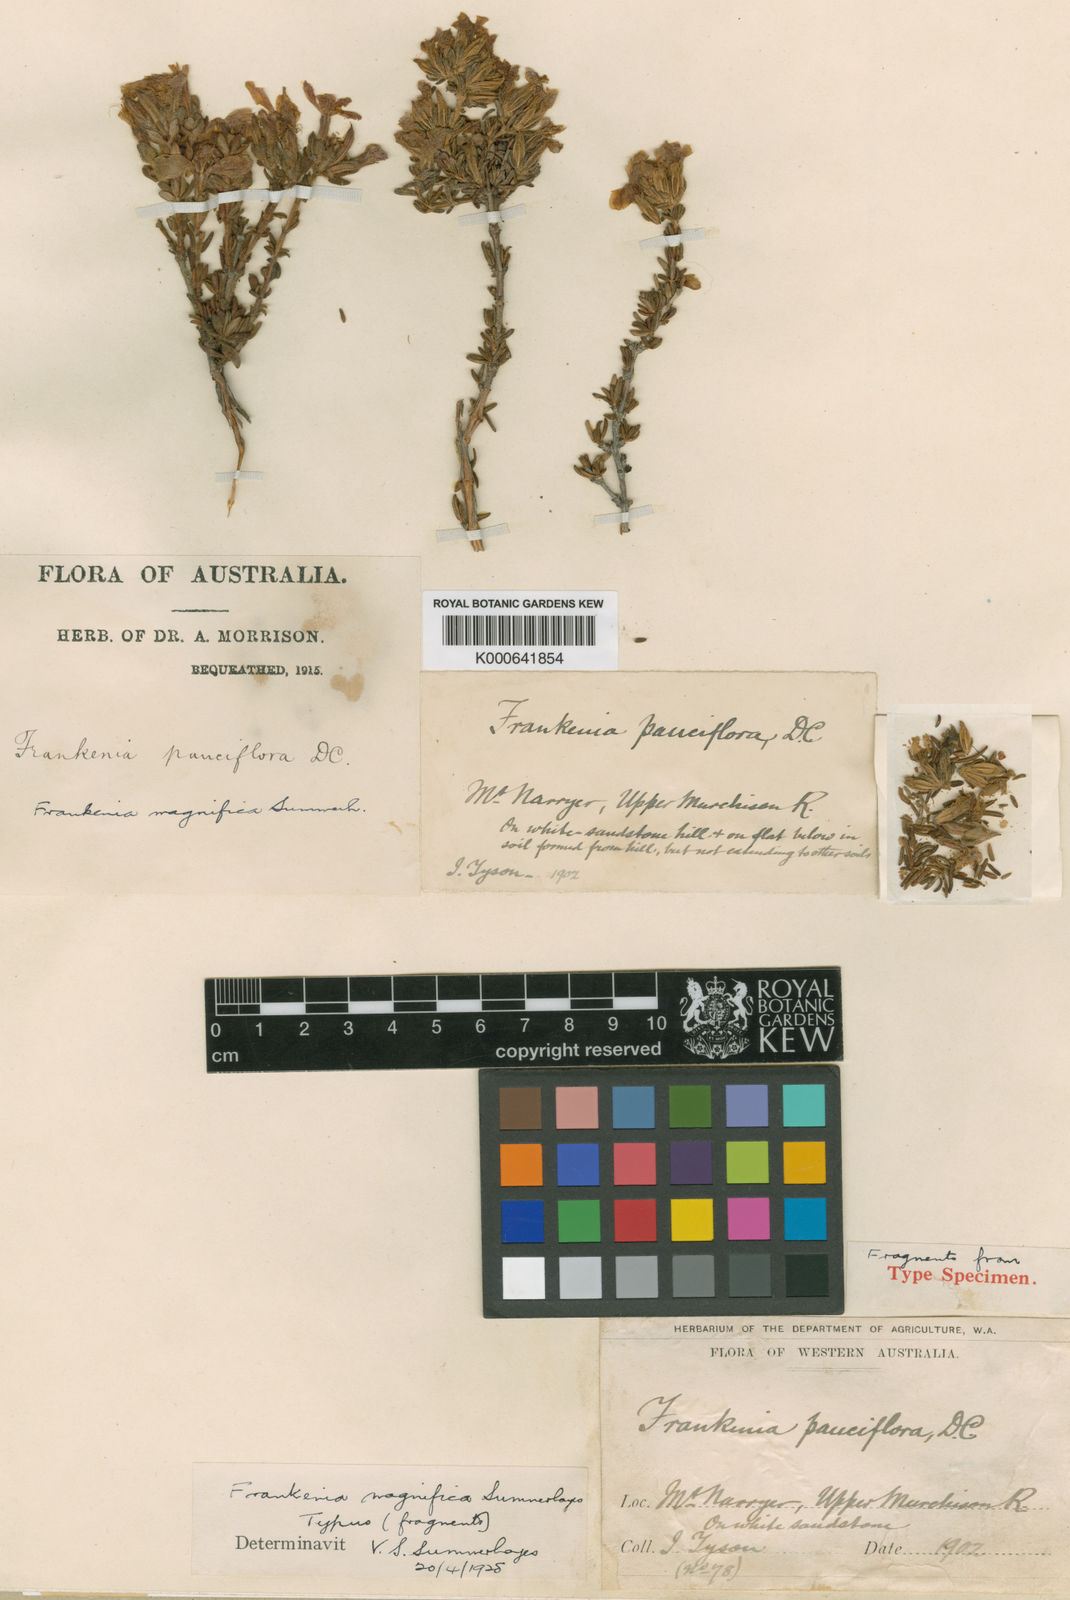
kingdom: Plantae
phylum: Tracheophyta
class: Magnoliopsida
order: Caryophyllales
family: Frankeniaceae
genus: Frankenia
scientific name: Frankenia magnifica
